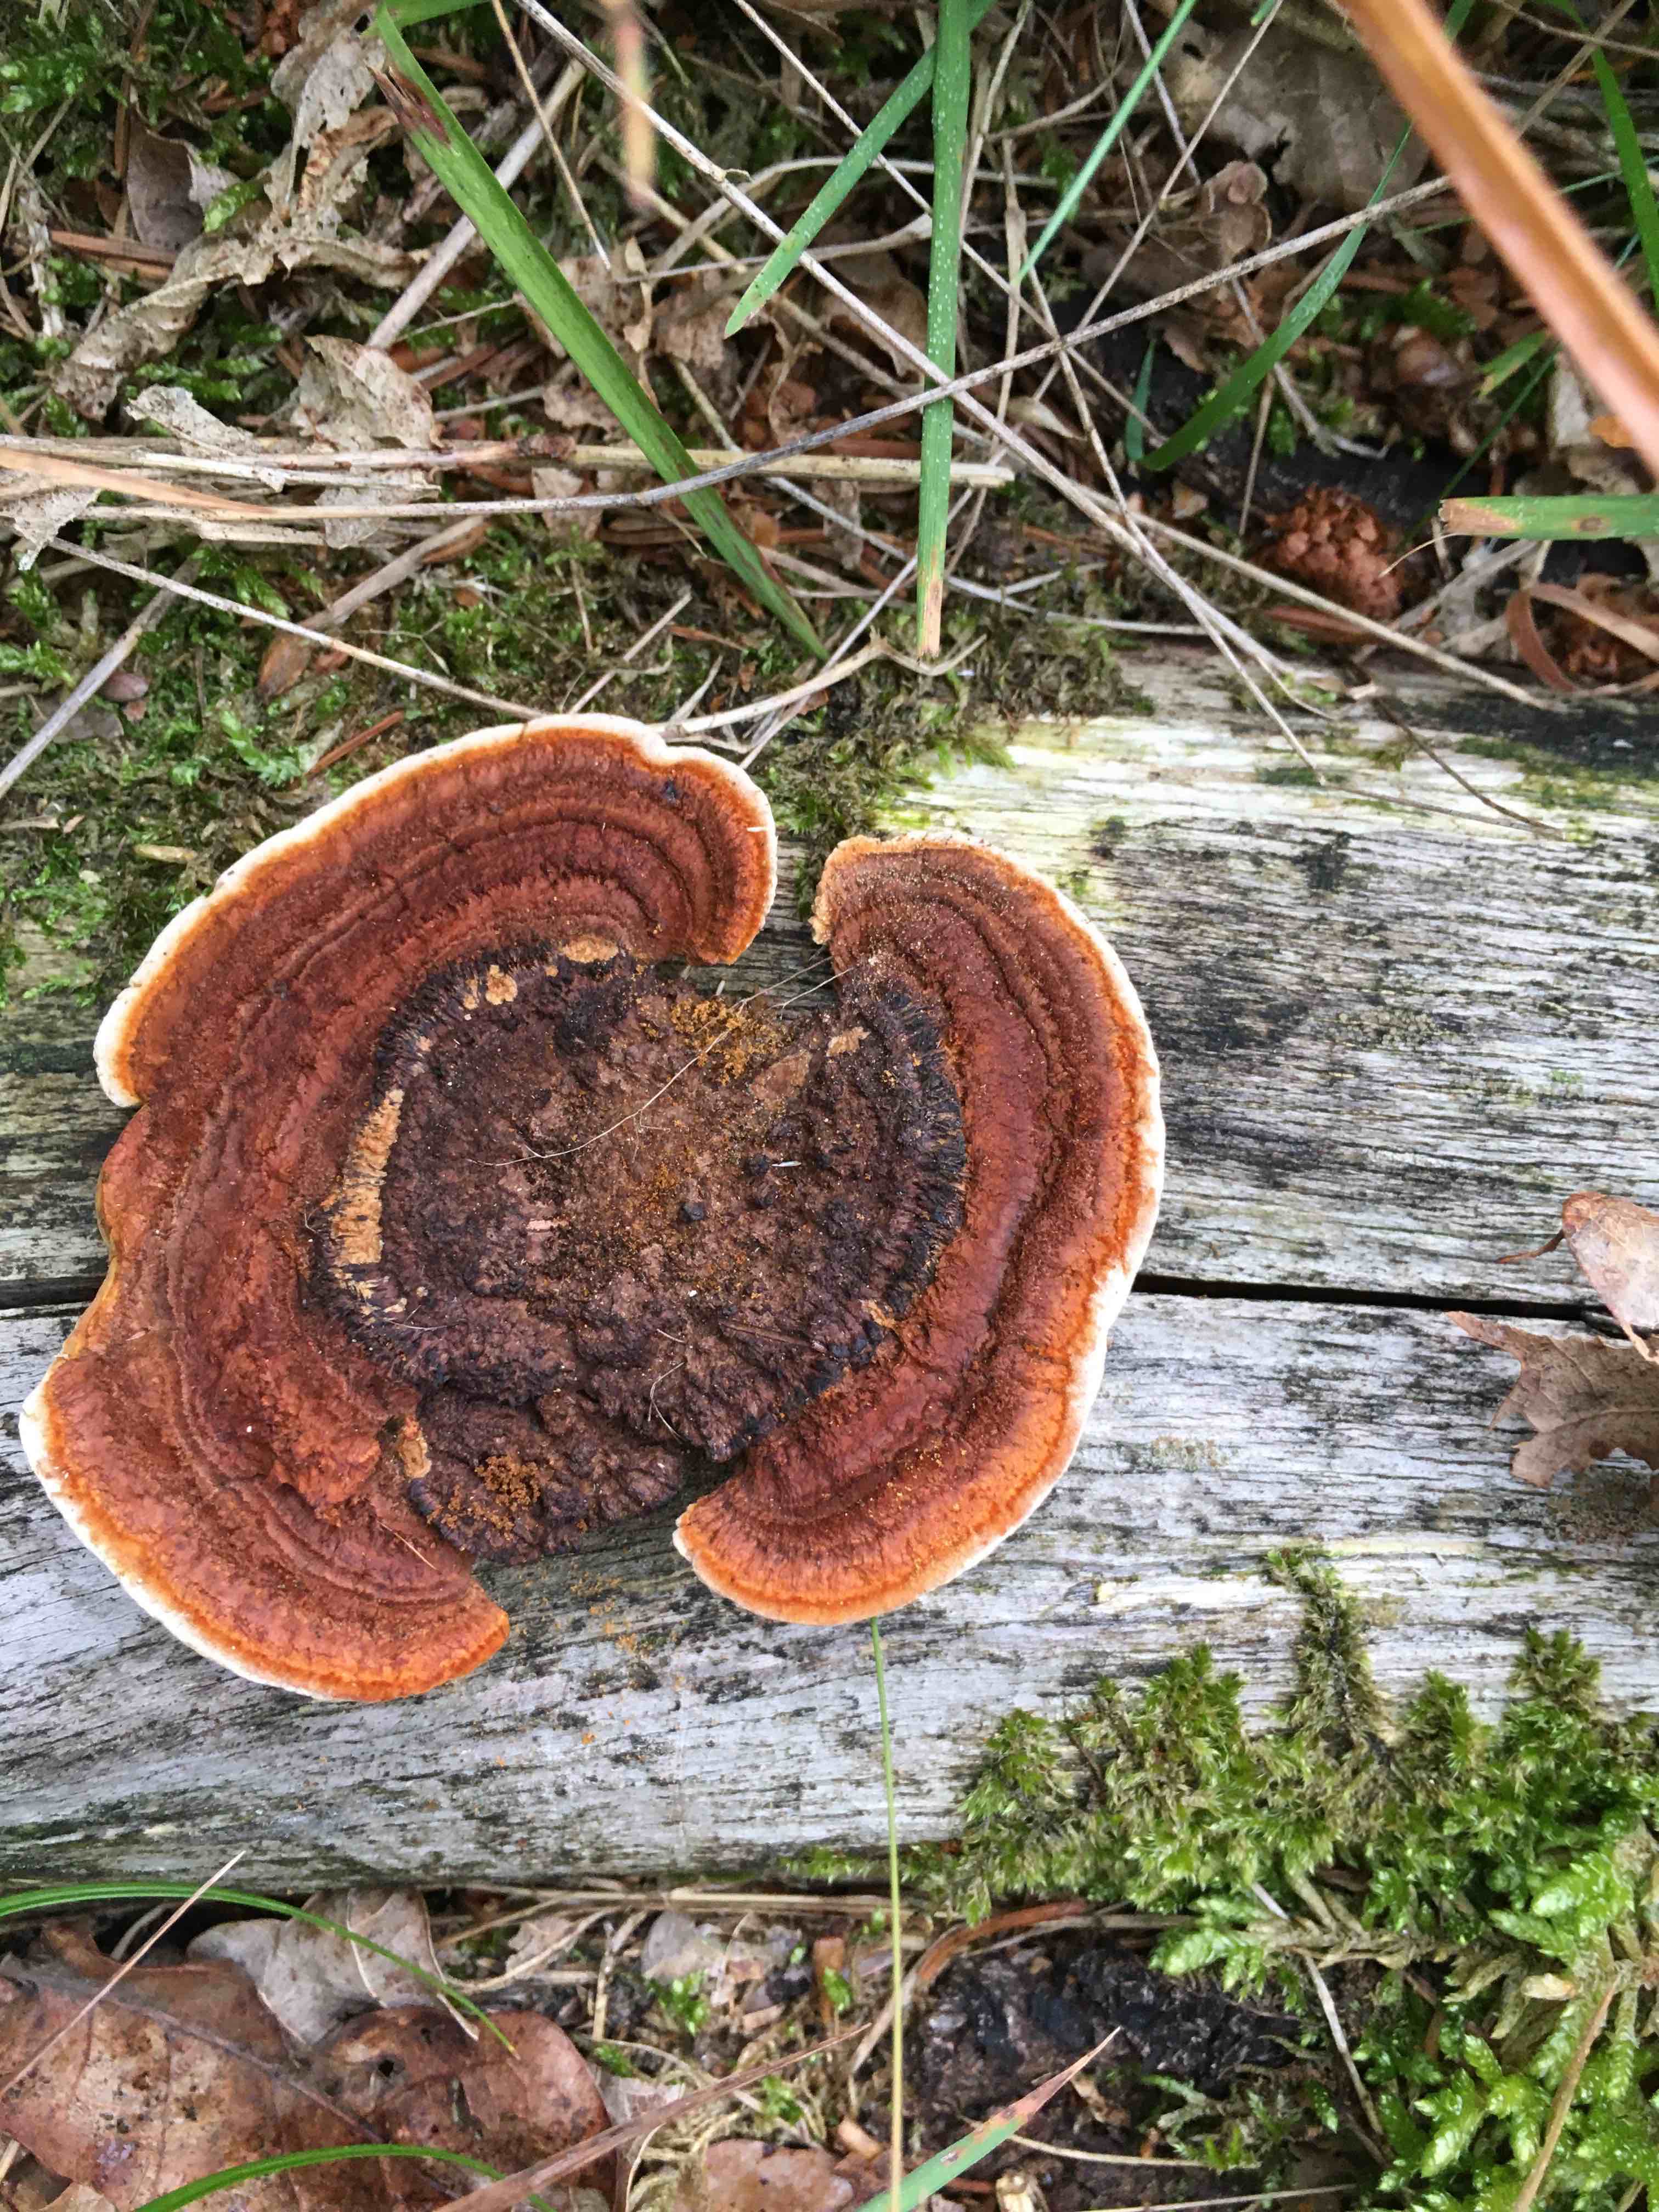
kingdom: Fungi
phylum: Basidiomycota
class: Agaricomycetes
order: Gloeophyllales
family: Gloeophyllaceae
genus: Gloeophyllum
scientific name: Gloeophyllum sepiarium
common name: fyrre-korkhat
